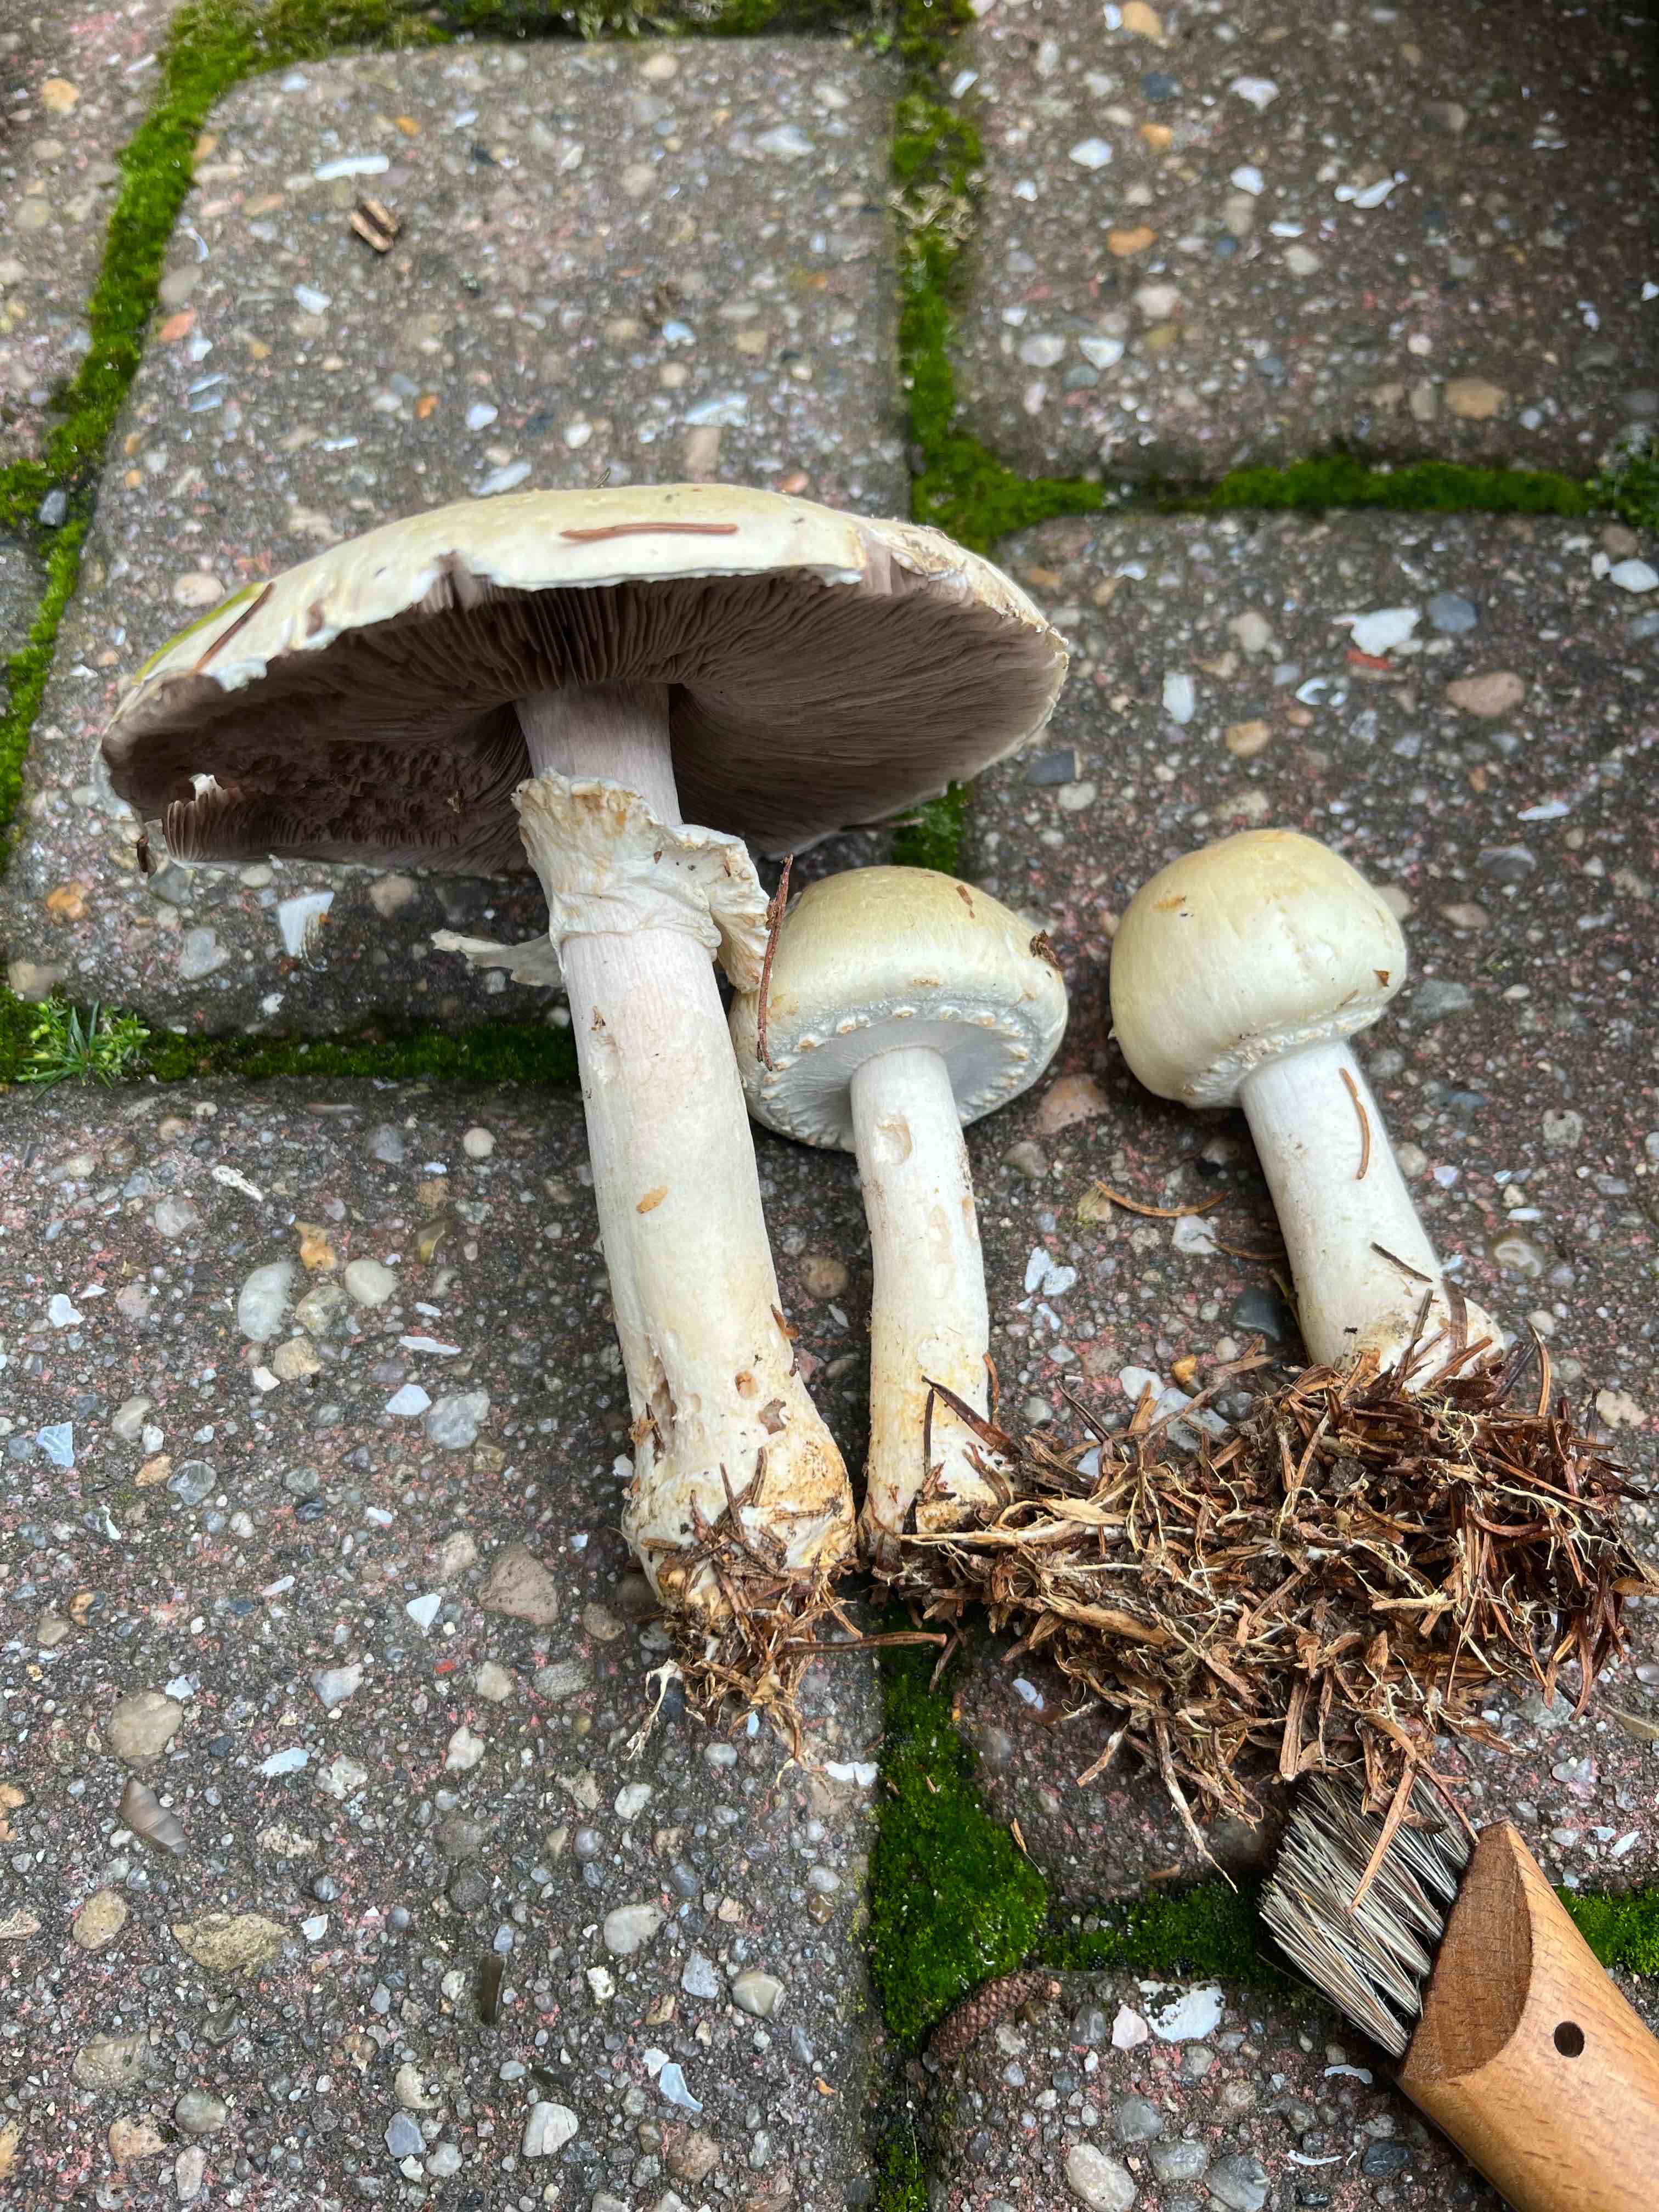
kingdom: Fungi
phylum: Basidiomycota
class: Agaricomycetes
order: Agaricales
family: Agaricaceae
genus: Agaricus
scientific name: Agaricus sylvicola
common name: gulhvid champignon
